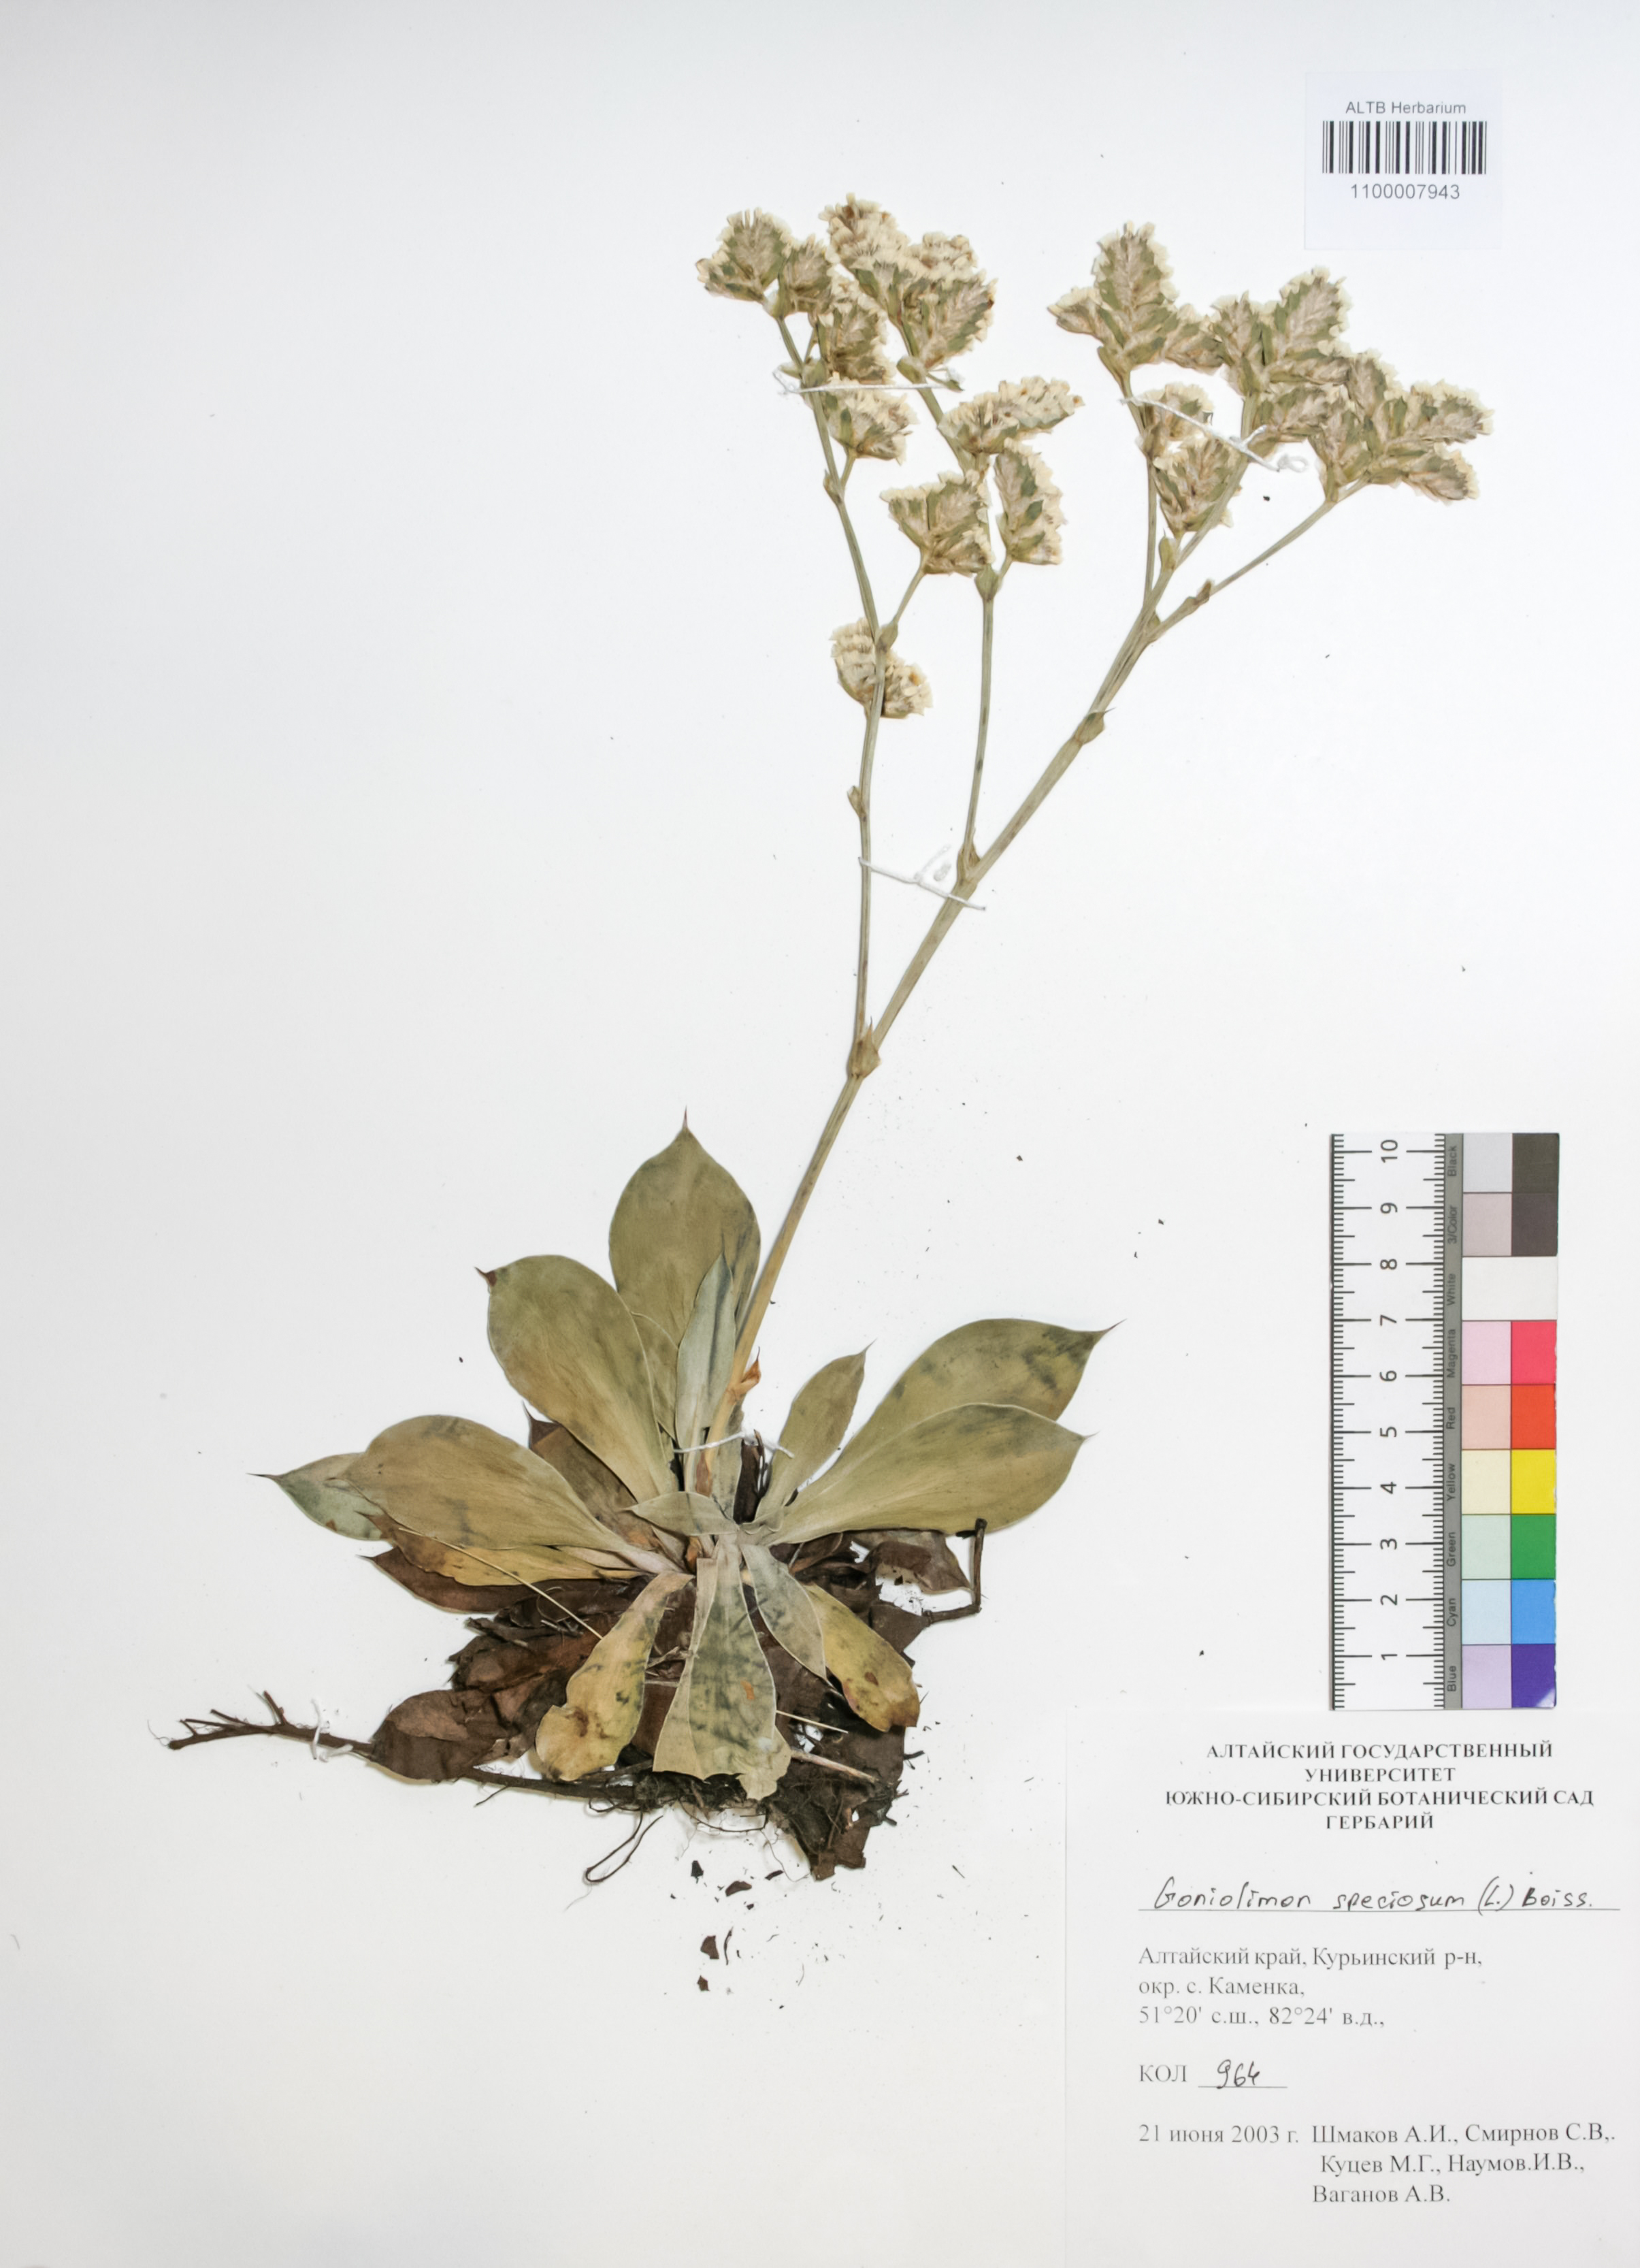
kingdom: Plantae
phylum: Tracheophyta
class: Magnoliopsida
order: Caryophyllales
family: Plumbaginaceae
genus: Goniolimon
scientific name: Goniolimon speciosum
